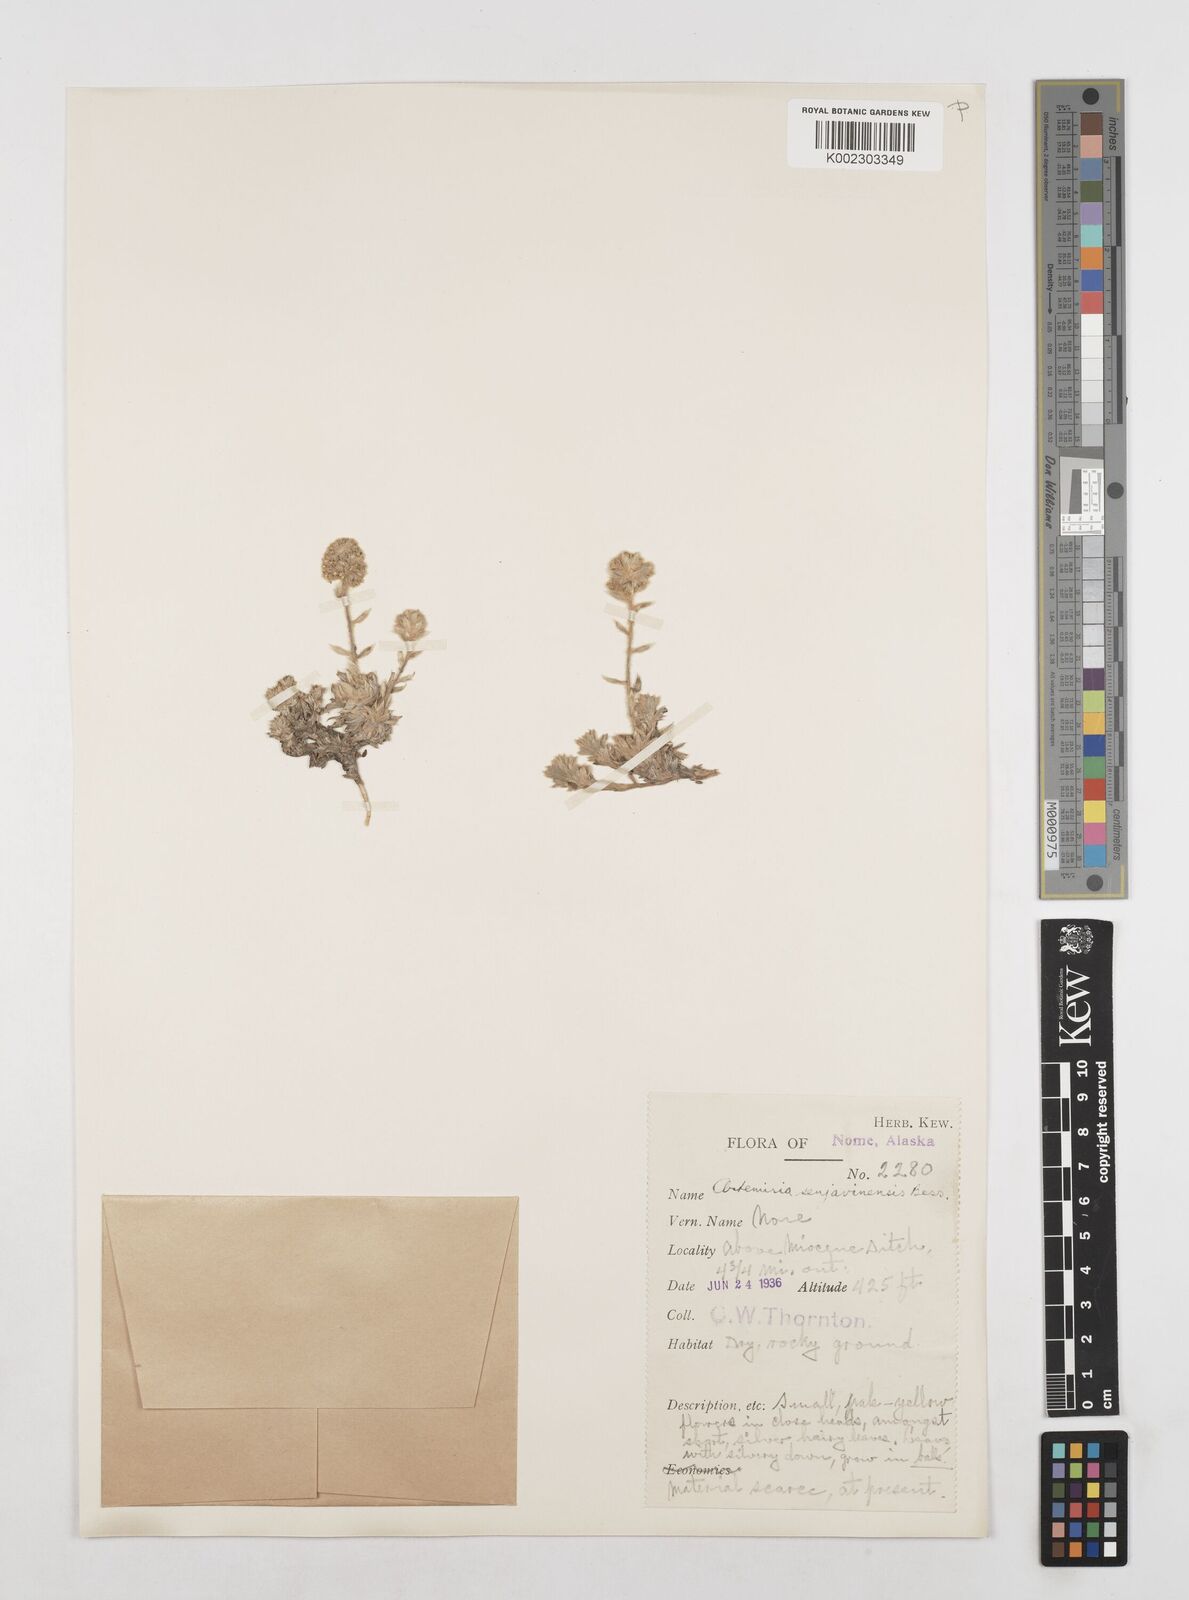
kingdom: Plantae
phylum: Tracheophyta
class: Magnoliopsida
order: Asterales
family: Asteraceae
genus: Artemisia
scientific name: Artemisia senjavinensis
